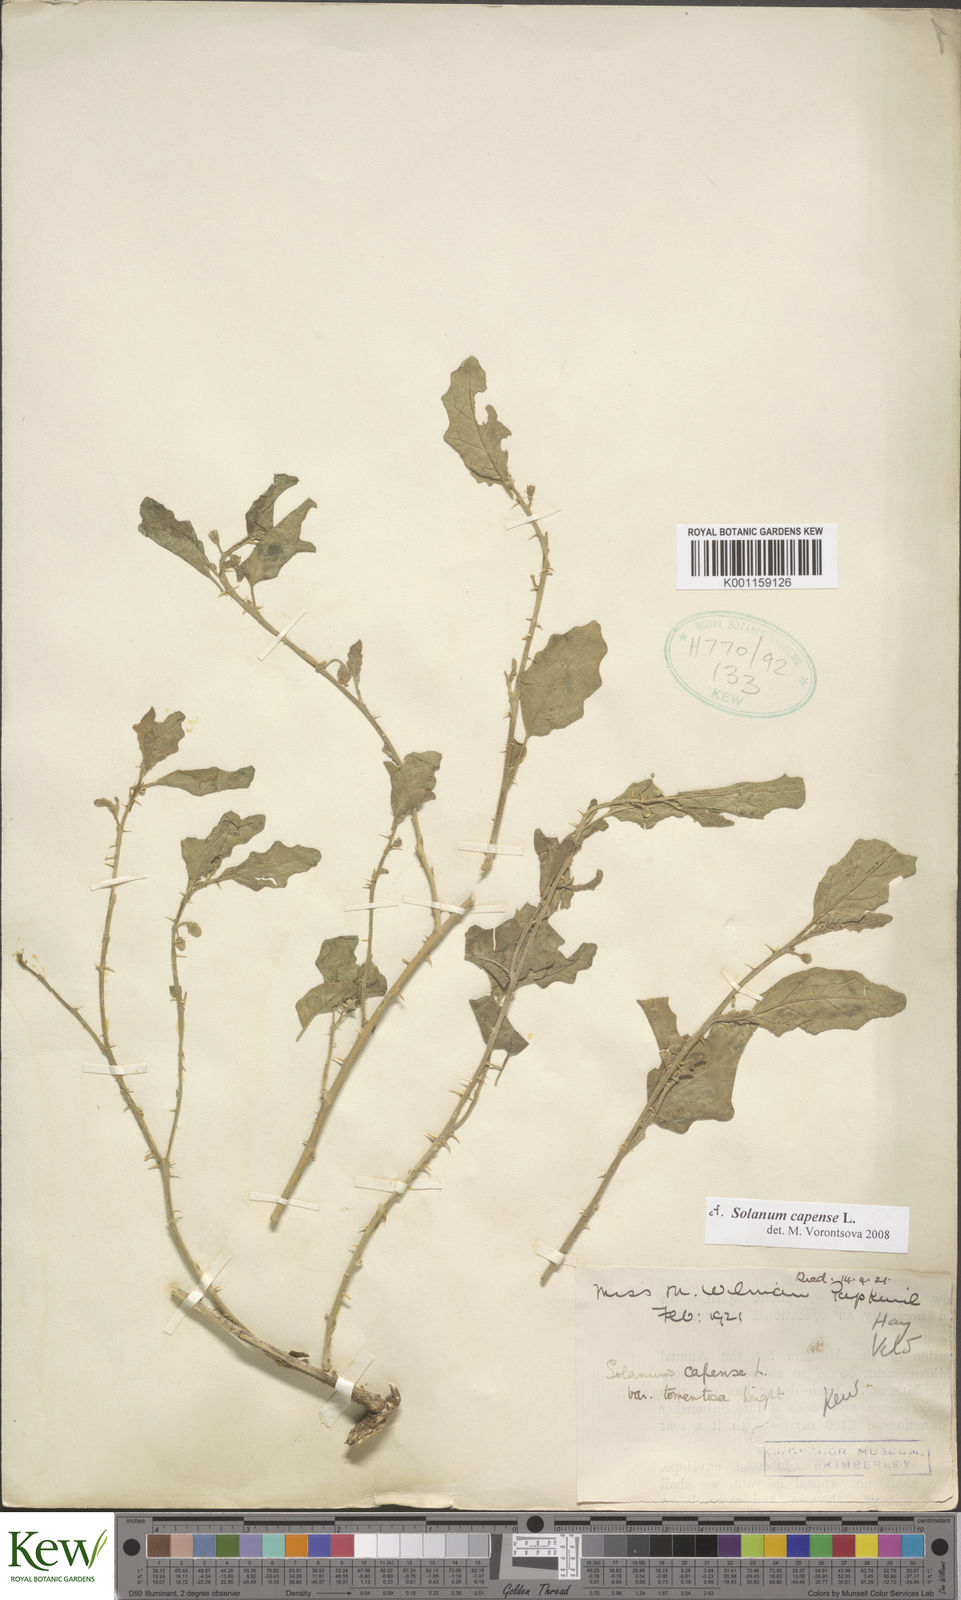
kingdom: Plantae
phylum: Tracheophyta
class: Magnoliopsida
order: Solanales
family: Solanaceae
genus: Solanum
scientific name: Solanum capense
